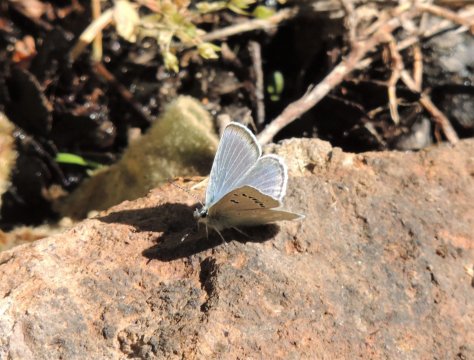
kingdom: Animalia
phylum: Arthropoda
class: Insecta
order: Lepidoptera
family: Lycaenidae
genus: Icaricia
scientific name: Icaricia icarioides
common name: Boisduval's Blue
